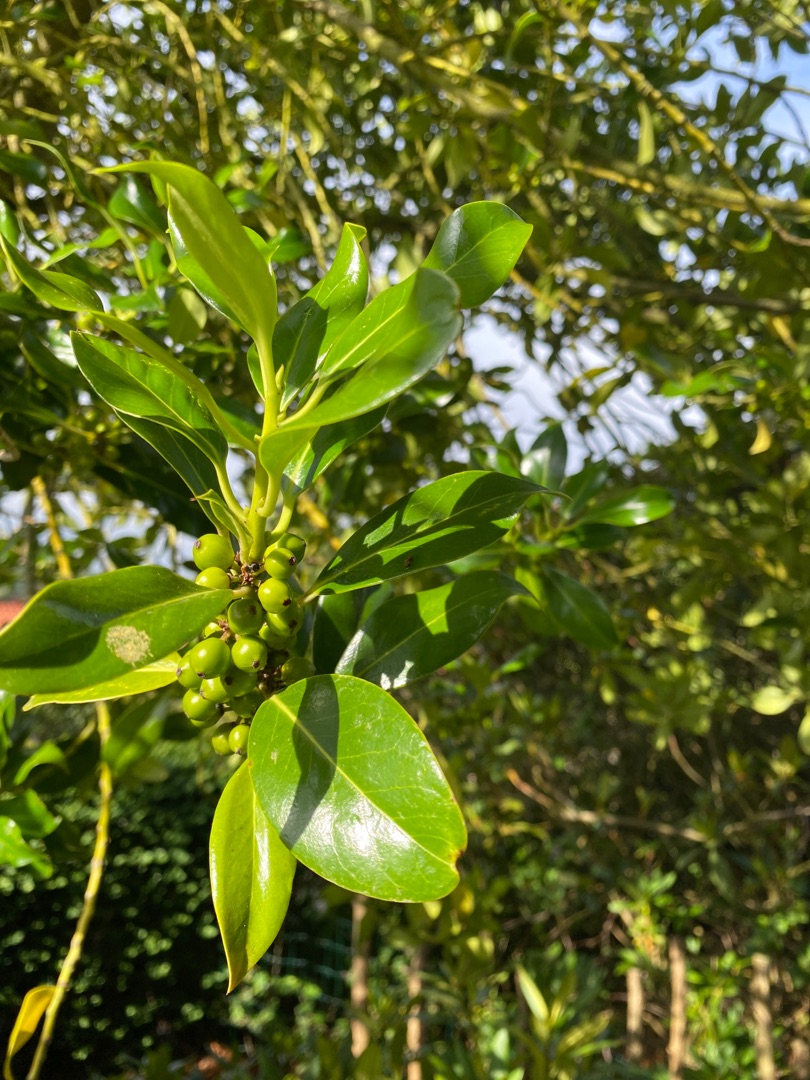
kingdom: Plantae
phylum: Tracheophyta
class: Magnoliopsida
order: Aquifoliales
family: Aquifoliaceae
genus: Ilex
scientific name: Ilex aquifolium
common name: Kristtorn
